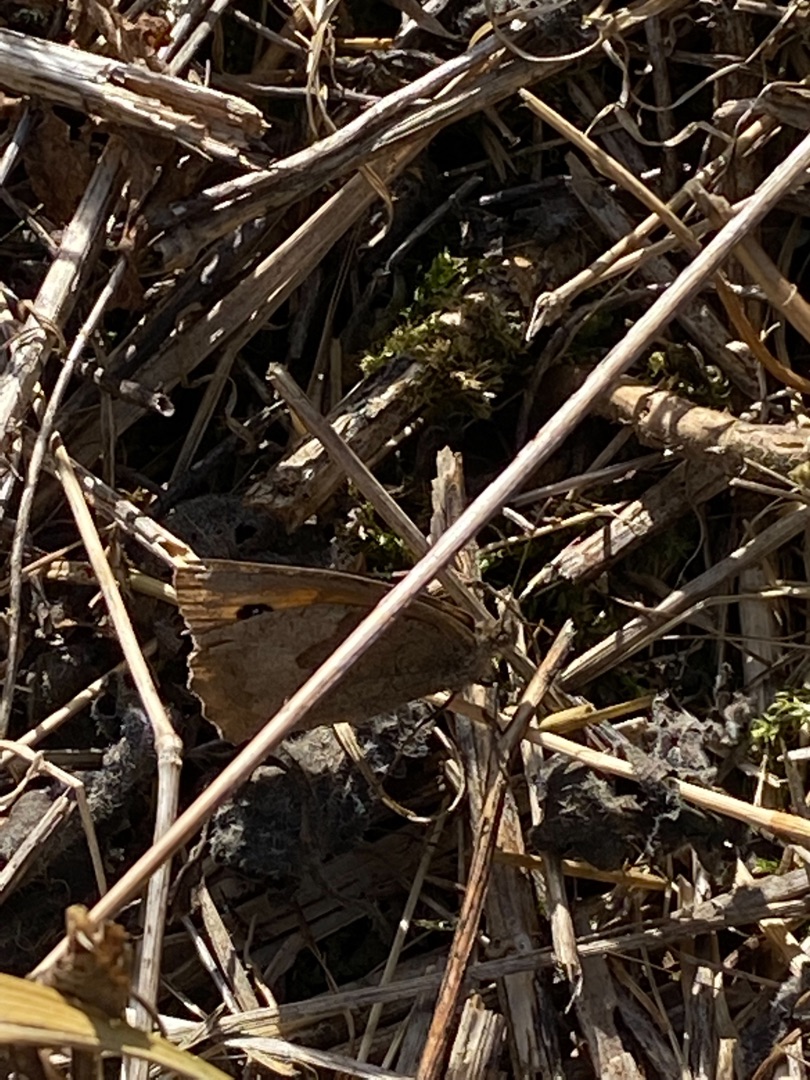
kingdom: Animalia
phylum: Arthropoda
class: Insecta
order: Lepidoptera
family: Nymphalidae
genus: Maniola
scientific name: Maniola jurtina
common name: Græsrandøje
